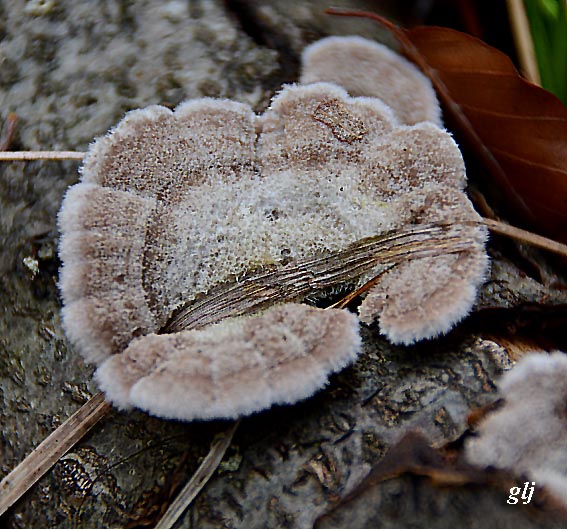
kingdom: Fungi
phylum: Basidiomycota
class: Agaricomycetes
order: Agaricales
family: Schizophyllaceae
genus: Schizophyllum
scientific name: Schizophyllum commune
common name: kløvblad
